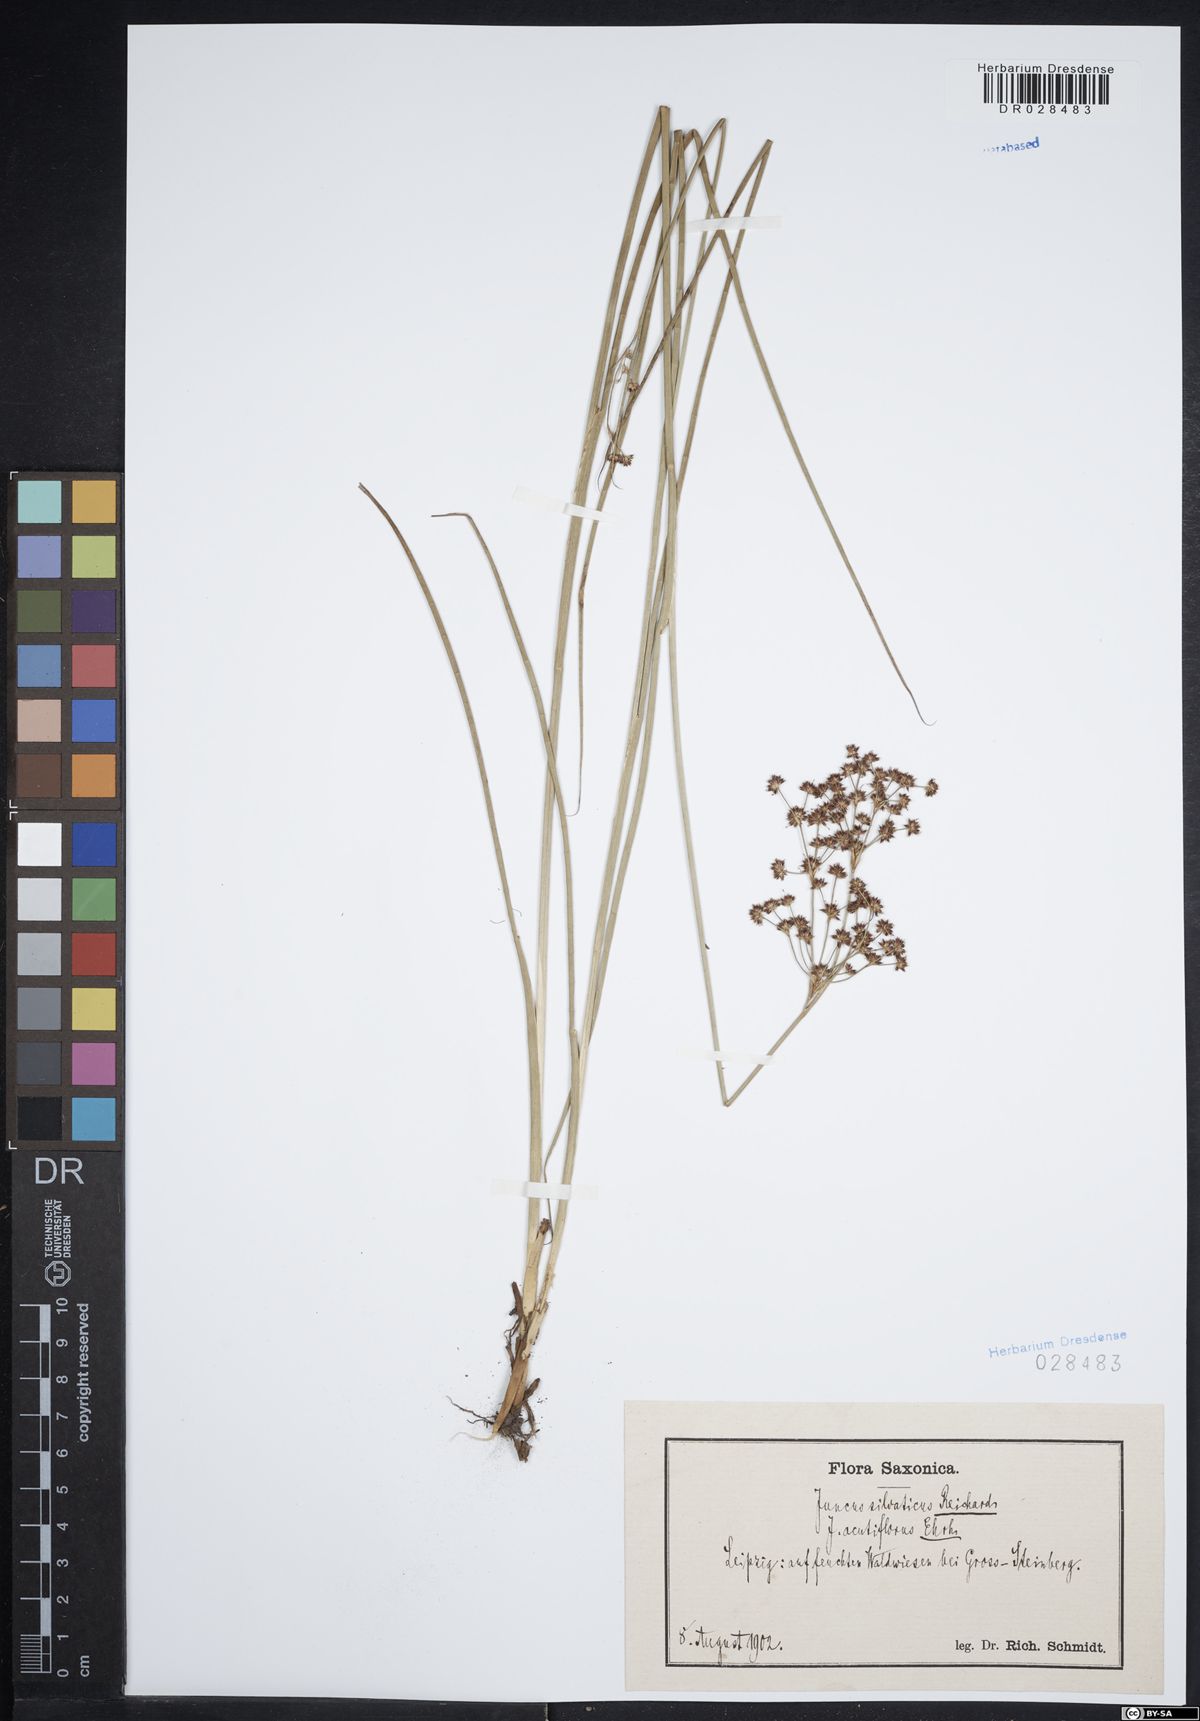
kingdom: Plantae
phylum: Tracheophyta
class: Liliopsida
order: Poales
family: Juncaceae
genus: Juncus
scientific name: Juncus acutiflorus
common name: Sharp-flowered rush
